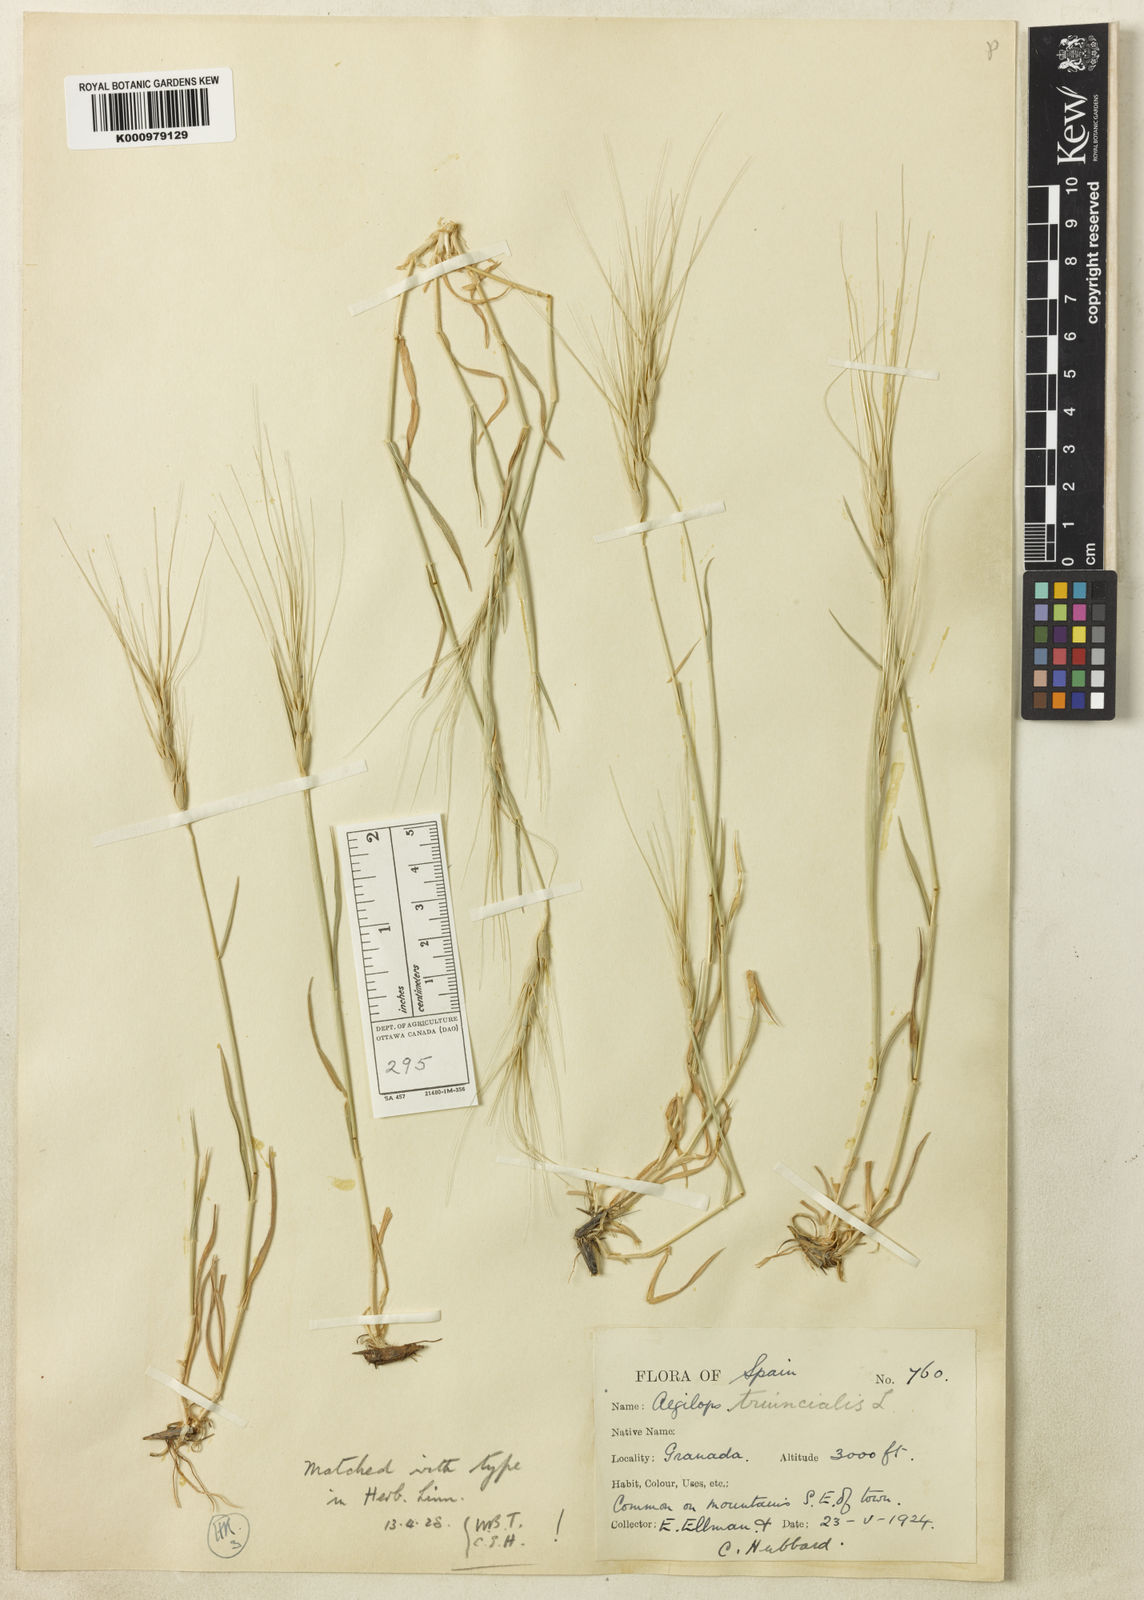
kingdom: Plantae
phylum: Tracheophyta
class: Liliopsida
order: Poales
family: Poaceae
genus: Aegilops
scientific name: Aegilops triuncialis
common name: Barb goat grass
